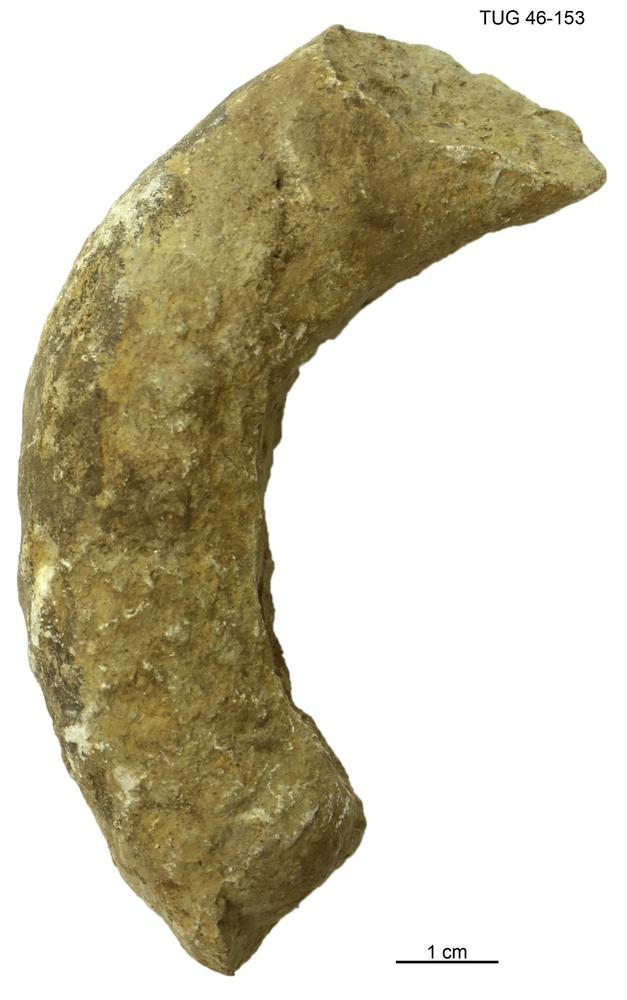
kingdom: Animalia
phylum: Mollusca
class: Cephalopoda
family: Trocholitidae
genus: Discoceras
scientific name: Discoceras Clymenia antiquissima
